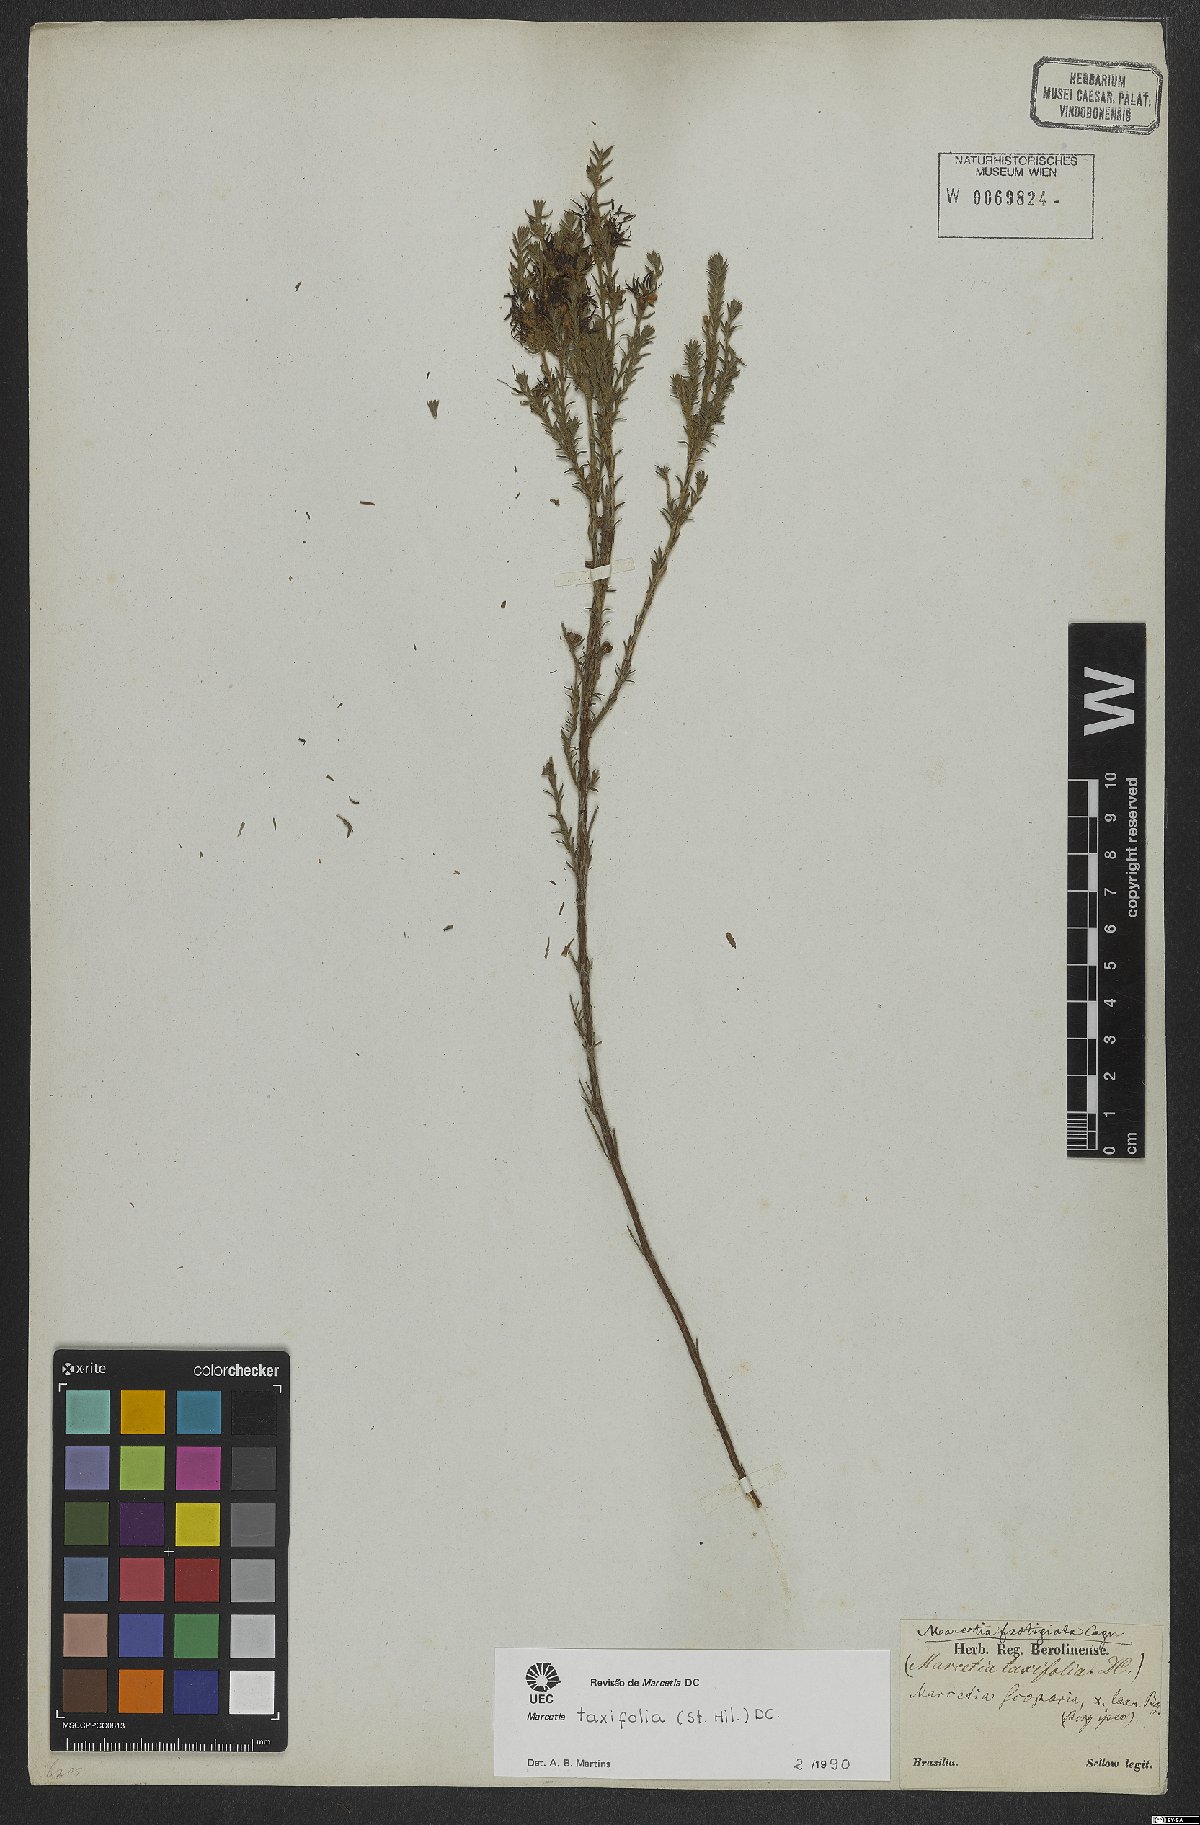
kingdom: Plantae
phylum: Tracheophyta
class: Magnoliopsida
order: Myrtales
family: Melastomataceae
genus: Marcetia
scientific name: Marcetia taxifolia
